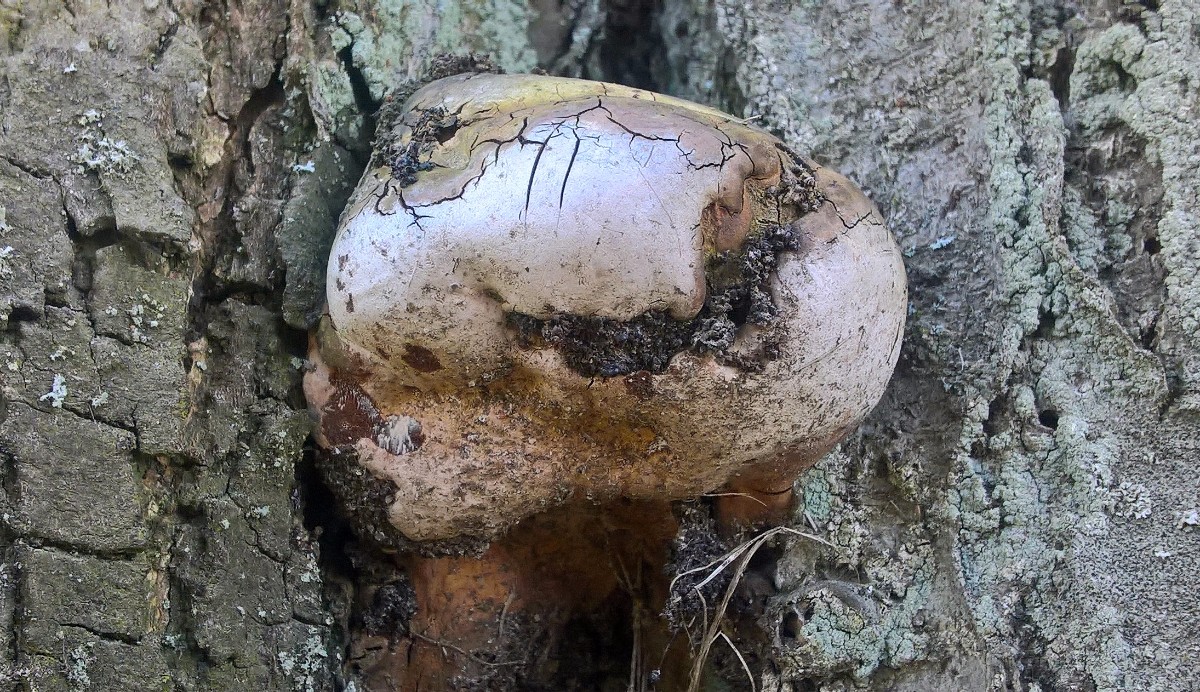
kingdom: Fungi
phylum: Basidiomycota
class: Agaricomycetes
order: Hymenochaetales
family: Hymenochaetaceae
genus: Phellinus
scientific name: Phellinus pomaceus
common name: blomme-ildporesvamp
